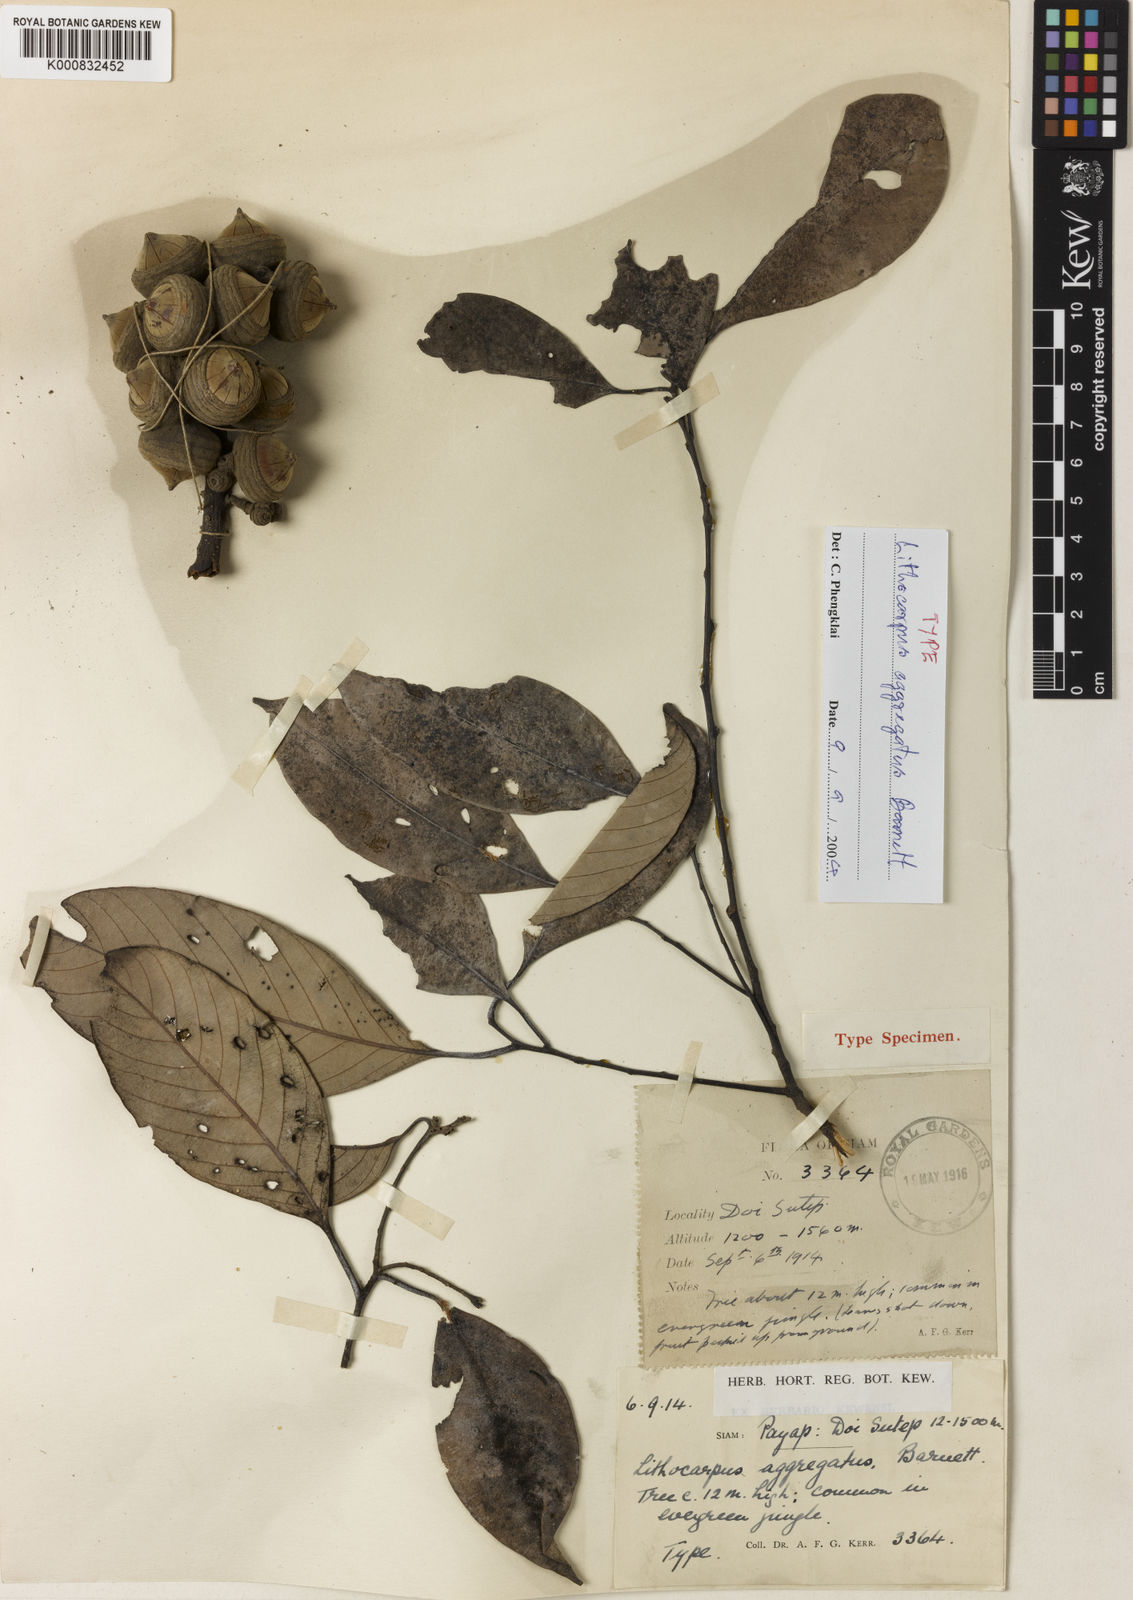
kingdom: Plantae
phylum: Tracheophyta
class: Magnoliopsida
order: Fagales
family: Fagaceae
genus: Lithocarpus
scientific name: Lithocarpus aggregatus
